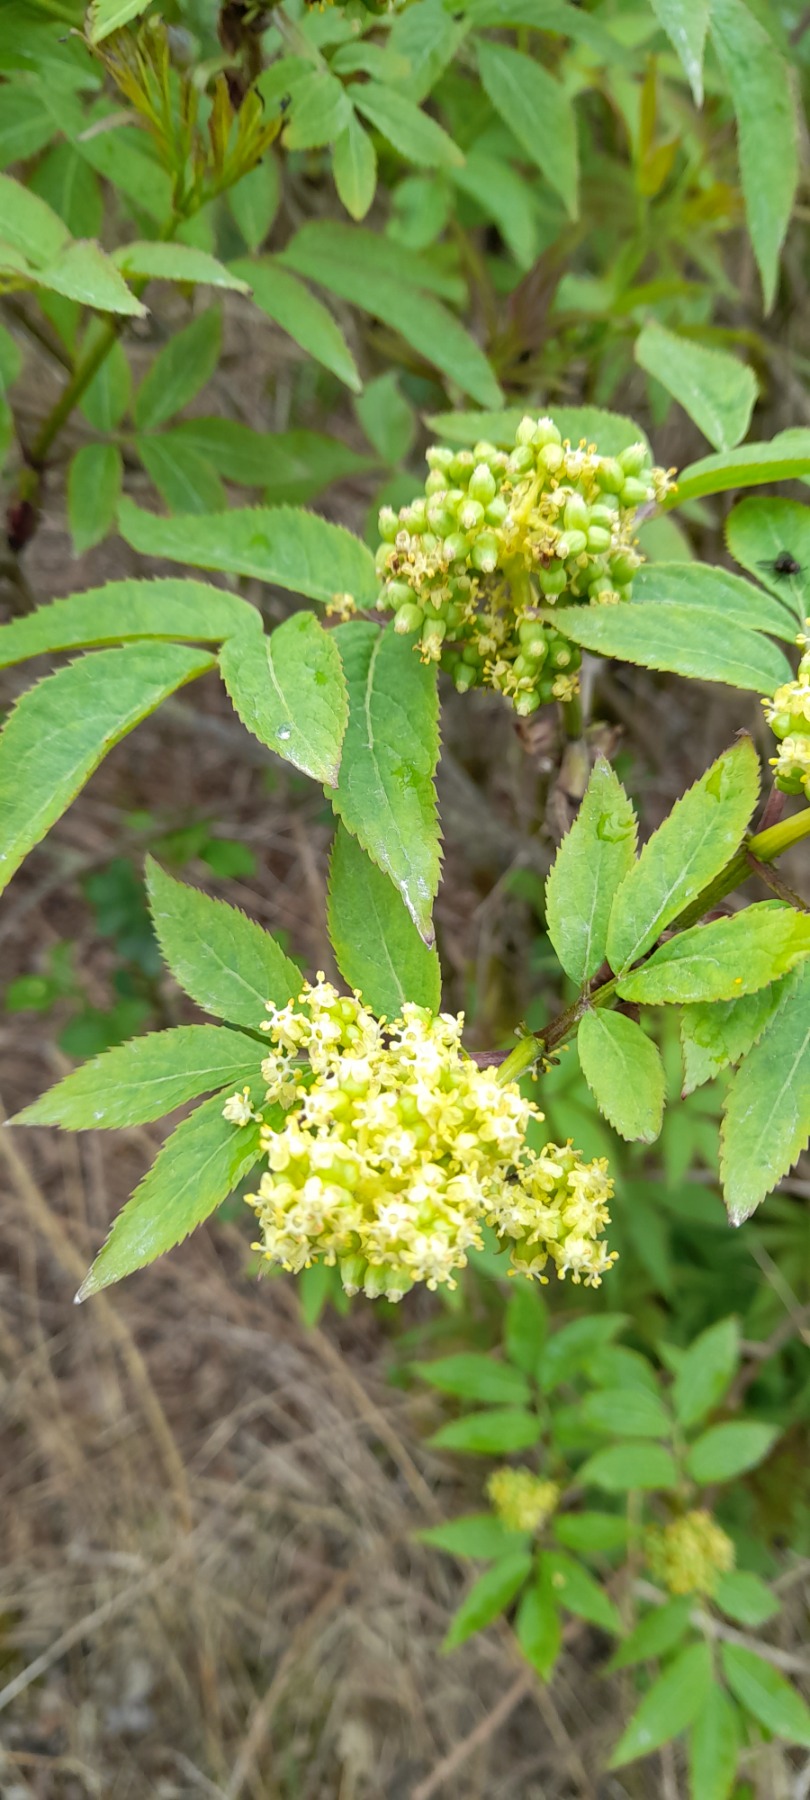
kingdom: Plantae
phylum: Tracheophyta
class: Magnoliopsida
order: Dipsacales
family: Viburnaceae
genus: Sambucus
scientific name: Sambucus racemosa
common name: Drue-hyld
